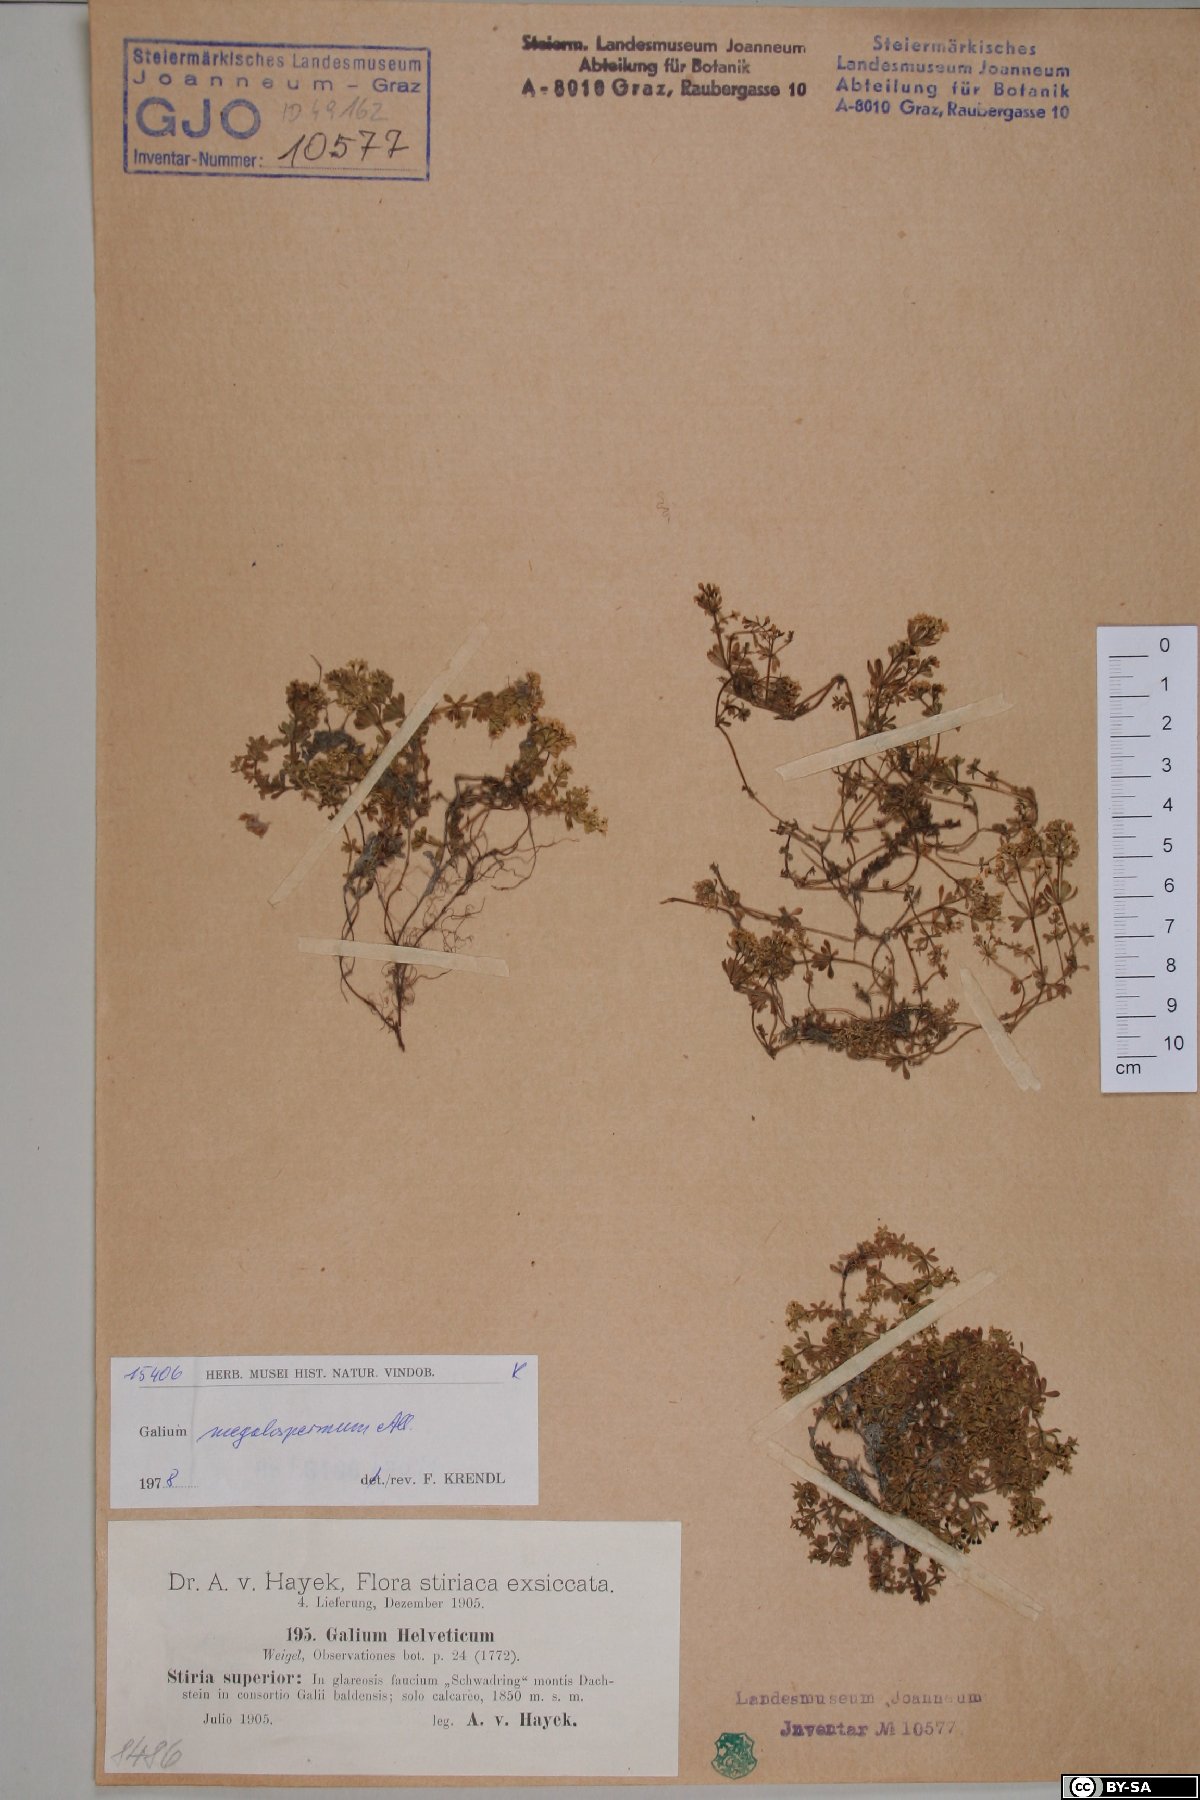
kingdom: Plantae
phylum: Tracheophyta
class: Magnoliopsida
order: Gentianales
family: Rubiaceae
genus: Galium
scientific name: Galium megalospermum
